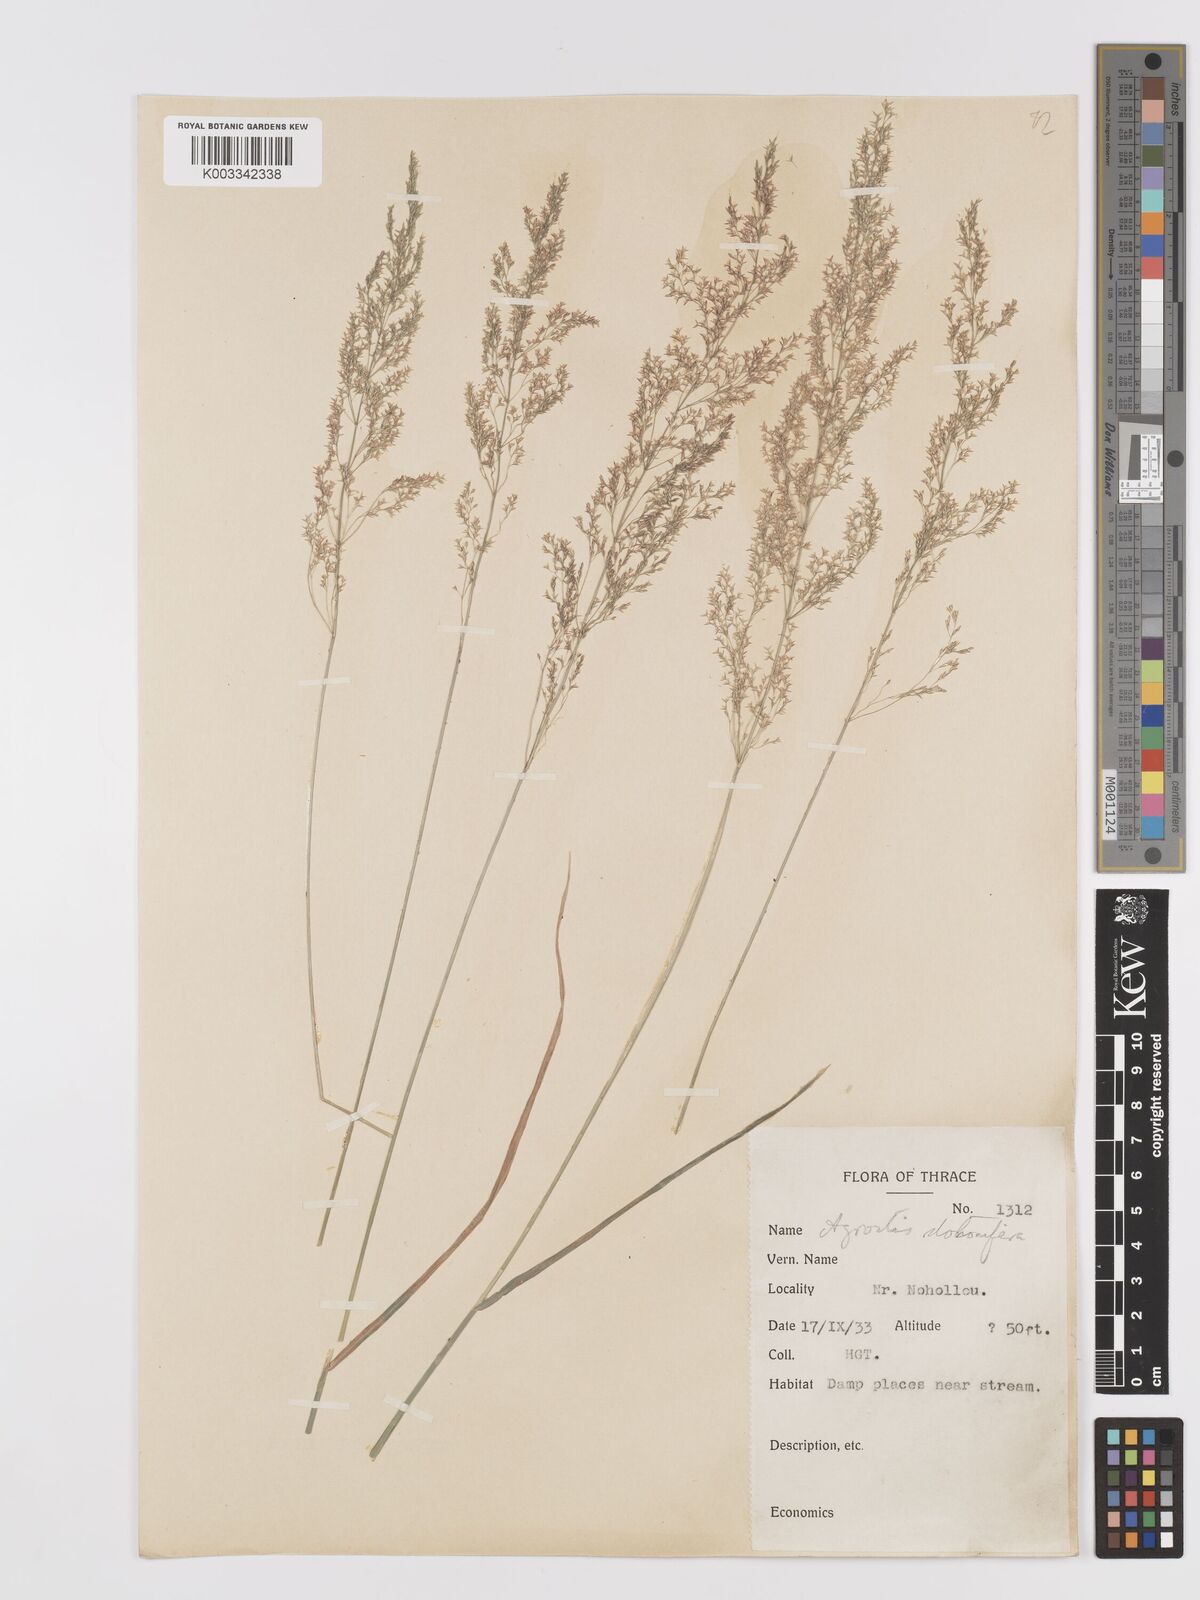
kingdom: Plantae
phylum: Tracheophyta
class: Liliopsida
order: Poales
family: Poaceae
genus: Agrostis
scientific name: Agrostis stolonifera
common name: Creeping bentgrass
